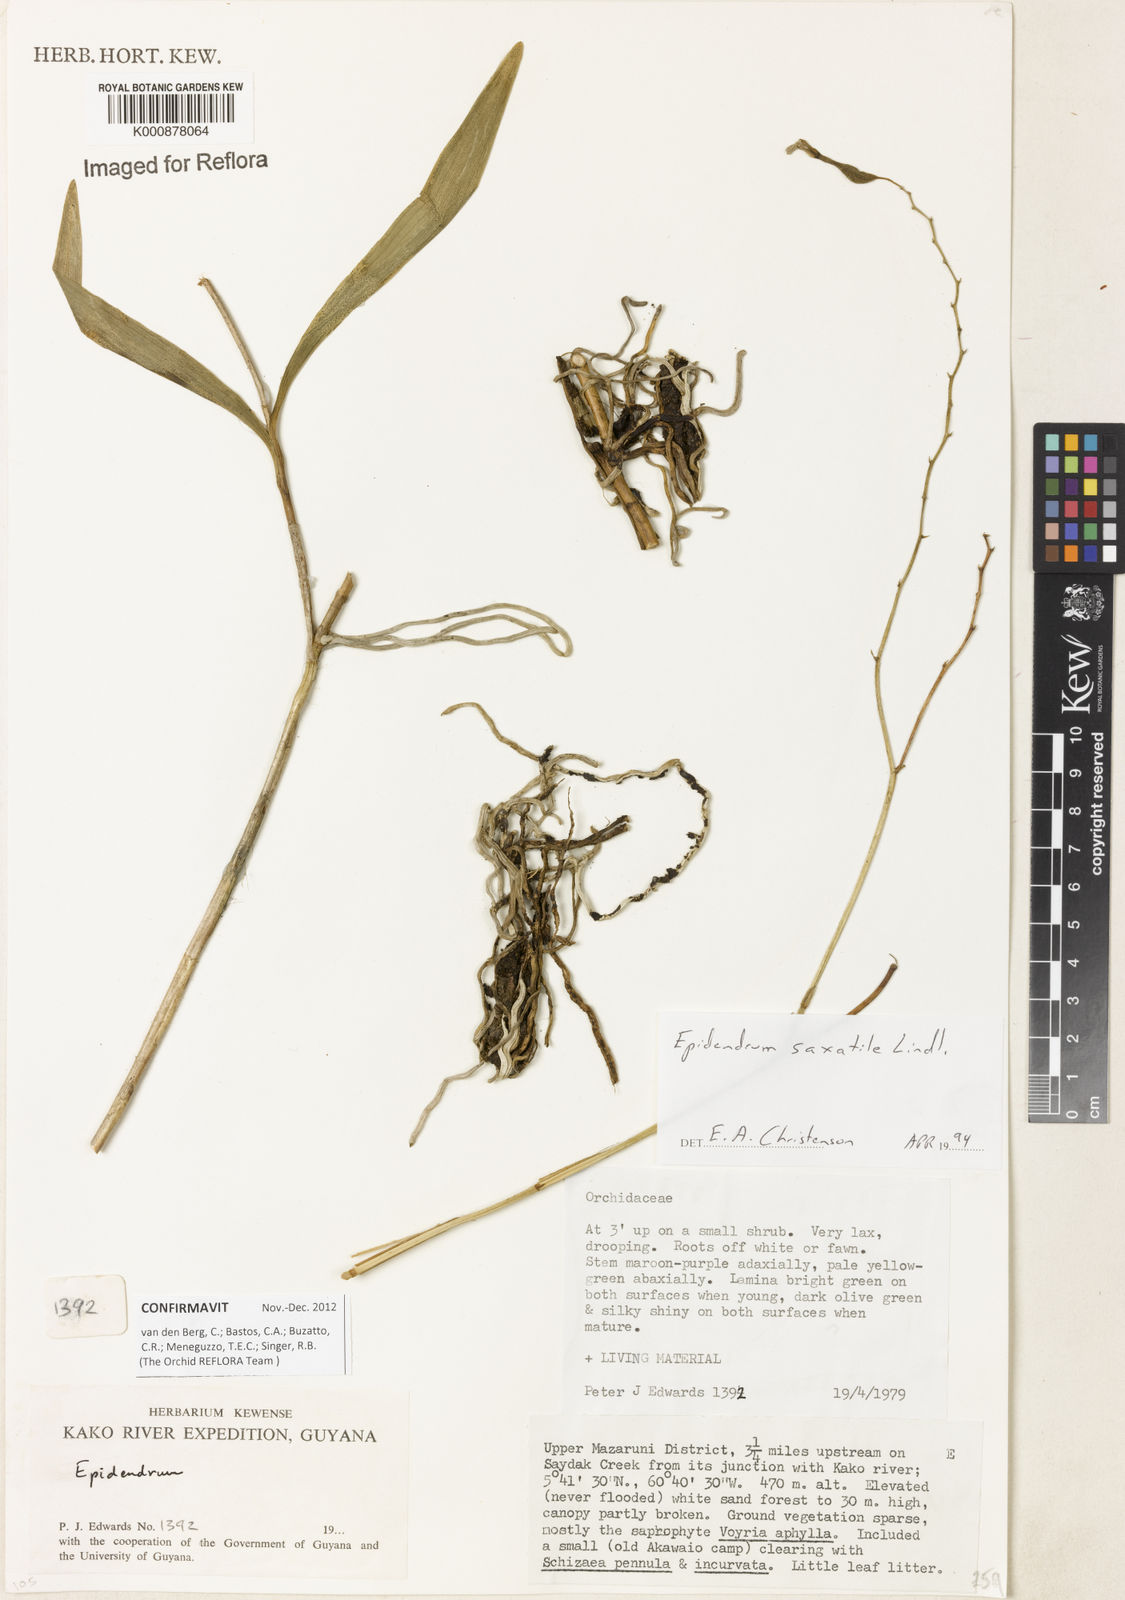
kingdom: Plantae
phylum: Tracheophyta
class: Liliopsida
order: Asparagales
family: Orchidaceae
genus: Epidendrum
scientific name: Epidendrum saxatile
